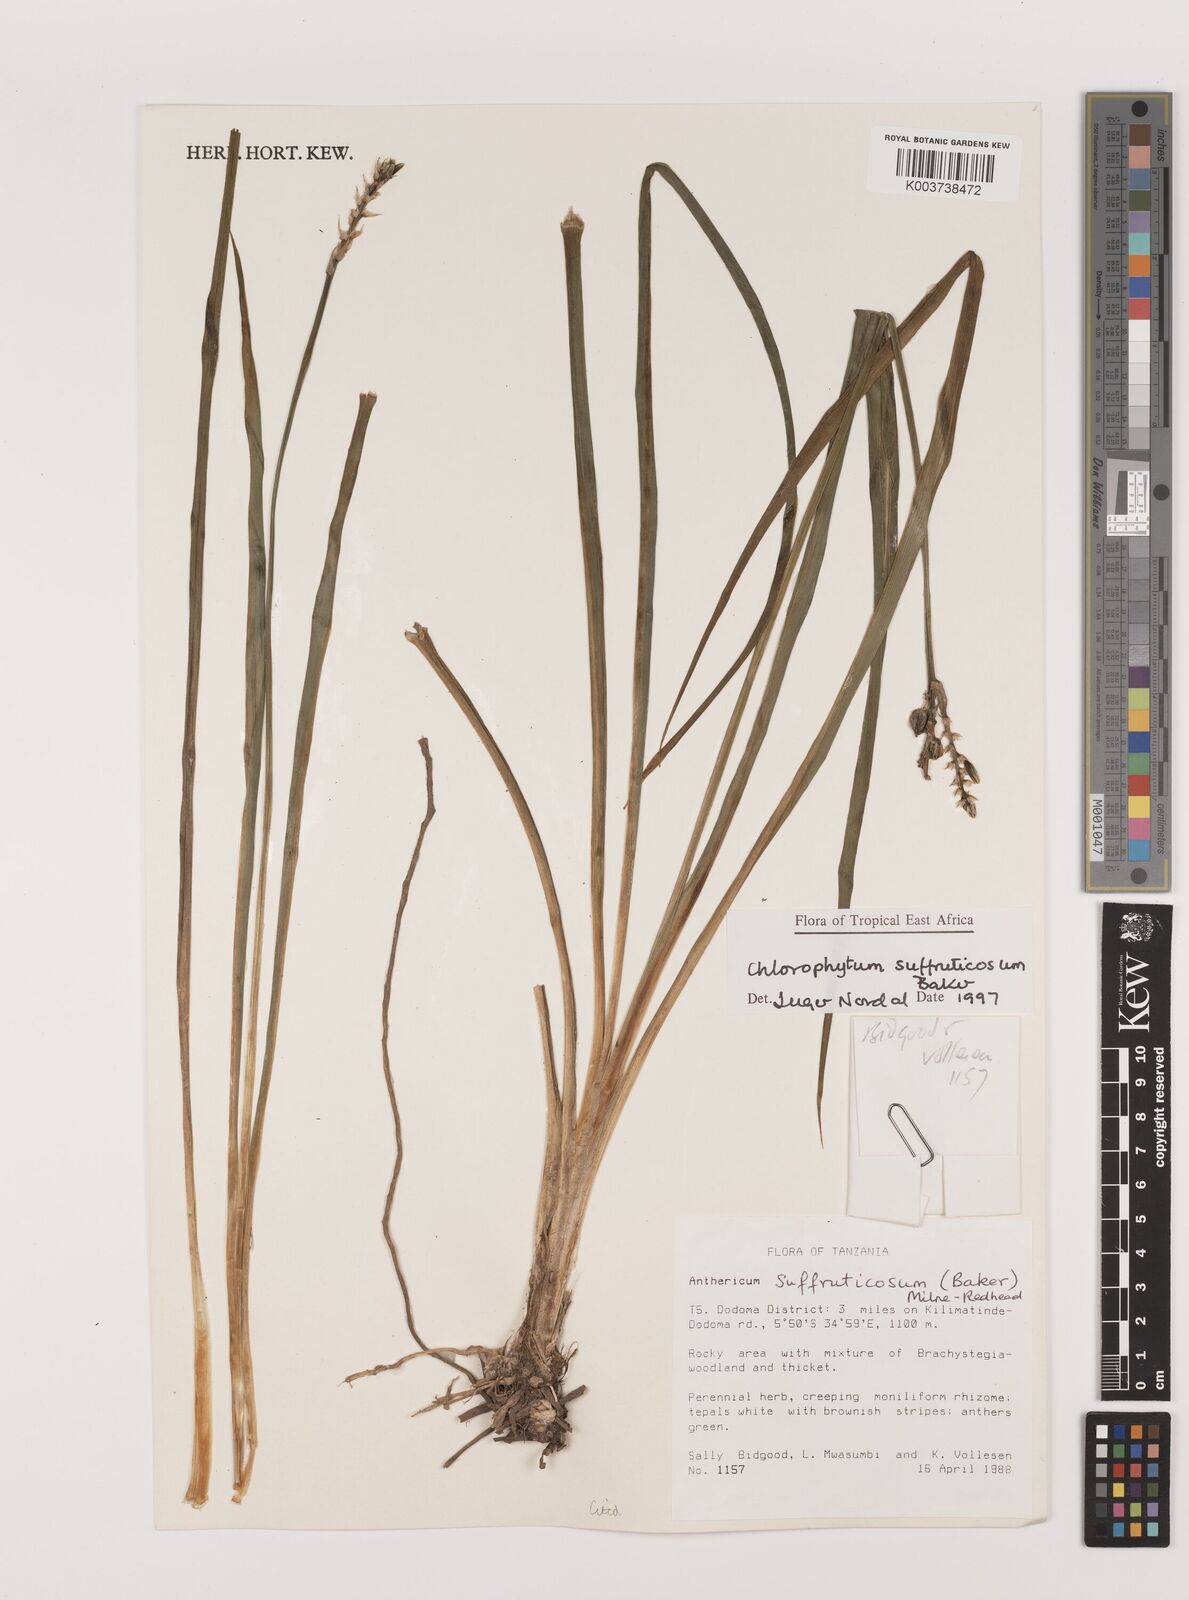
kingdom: Plantae
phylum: Tracheophyta
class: Liliopsida
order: Asparagales
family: Asparagaceae
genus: Chlorophytum
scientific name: Chlorophytum suffruticosum
